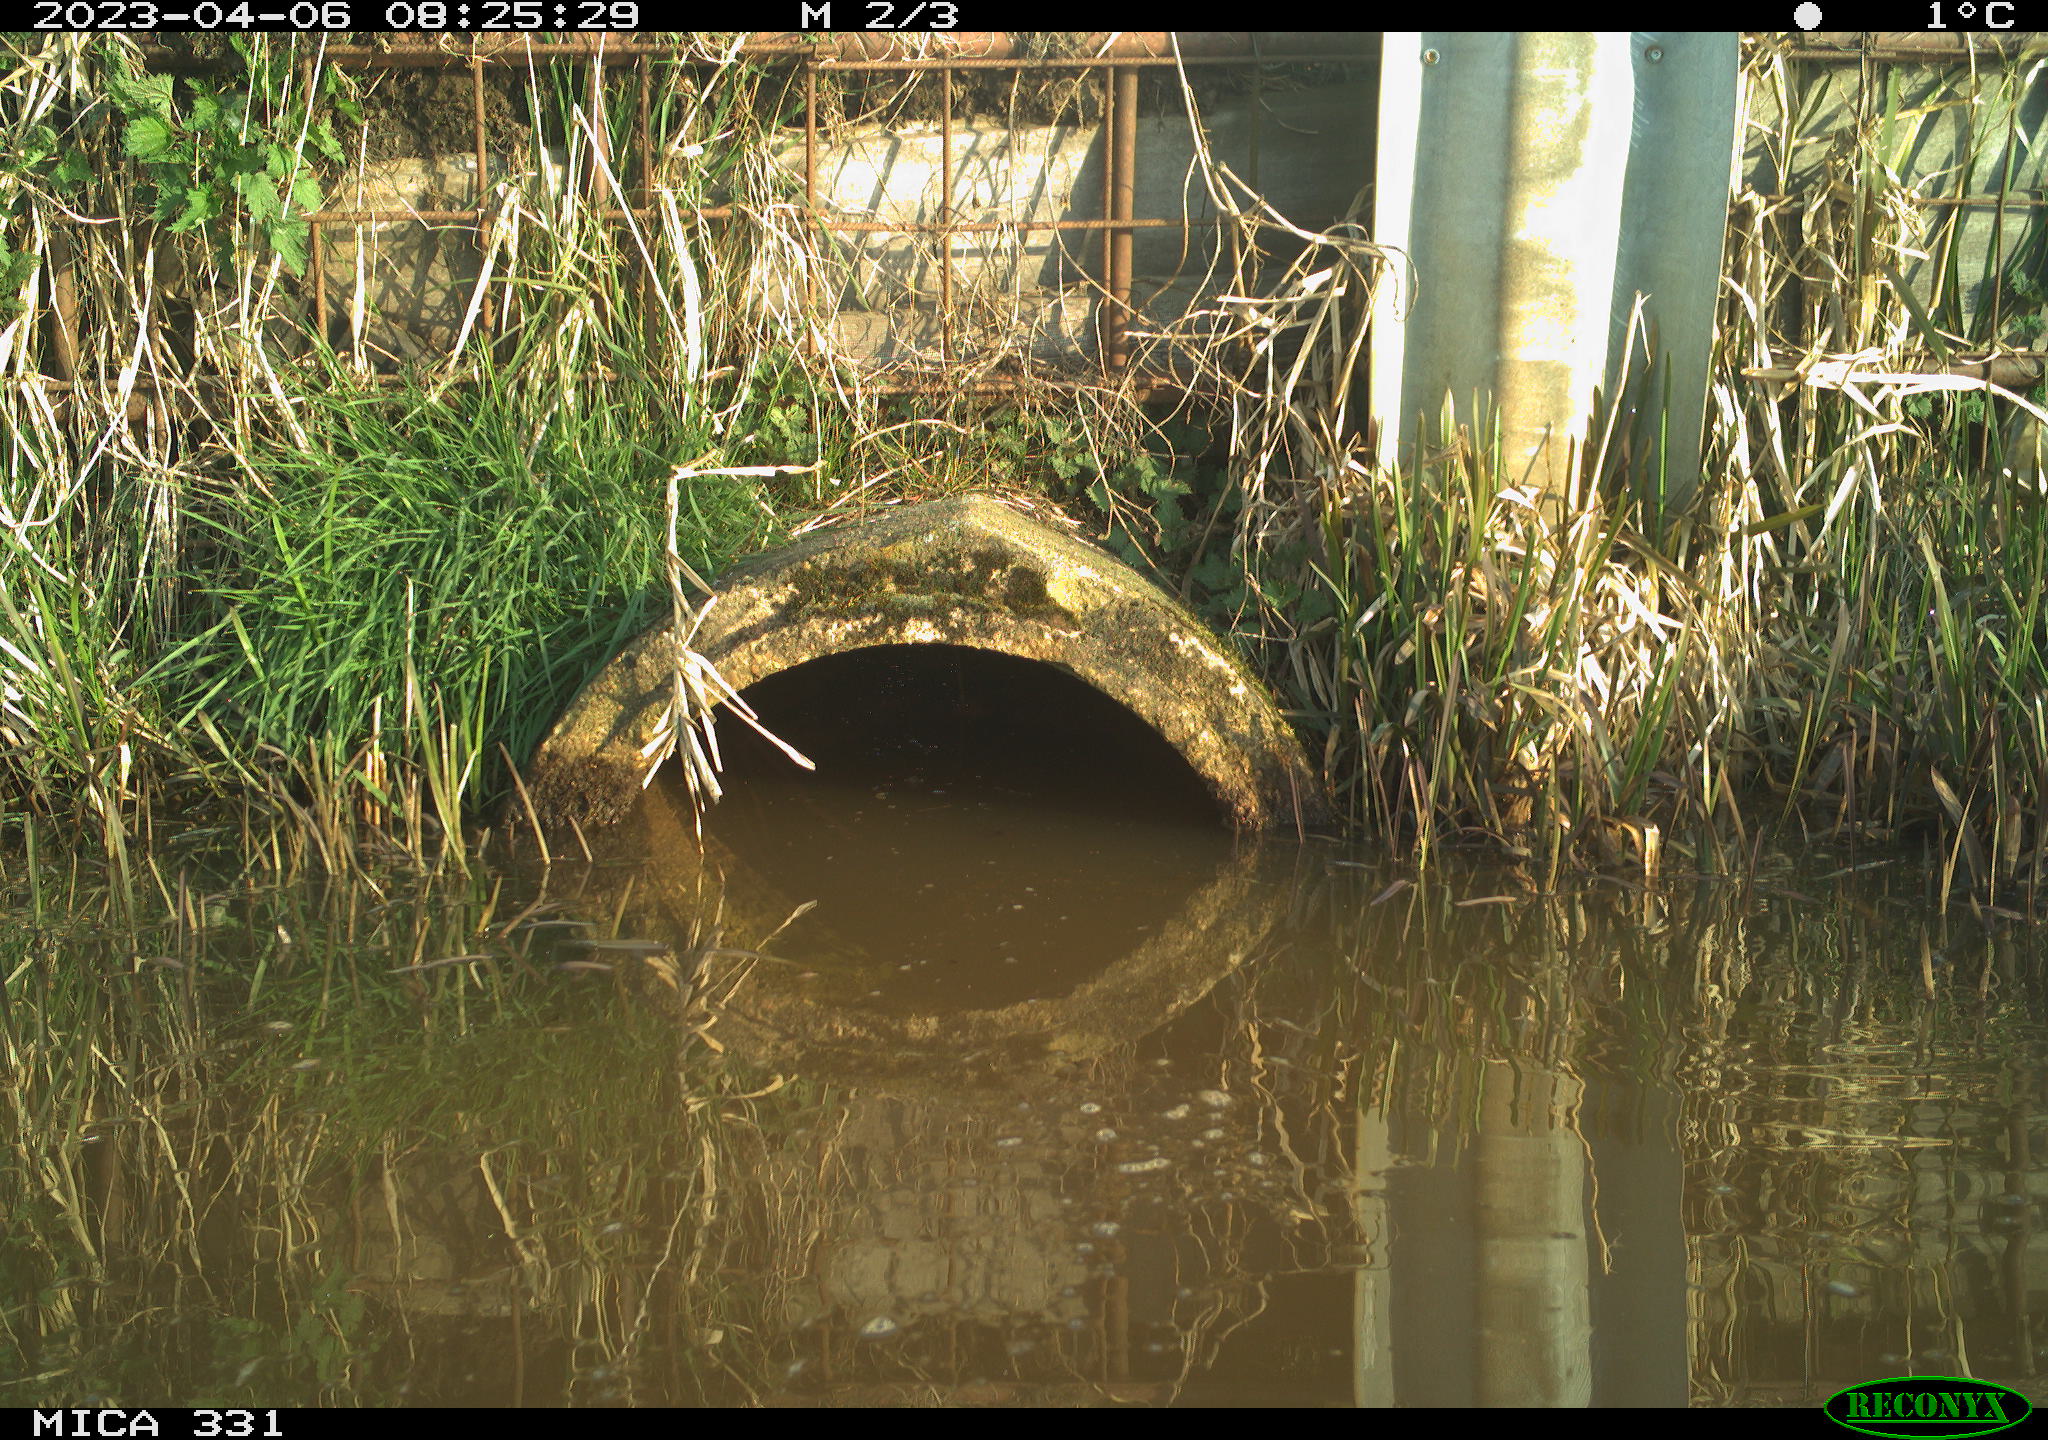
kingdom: Animalia
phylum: Chordata
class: Aves
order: Gruiformes
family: Rallidae
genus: Fulica
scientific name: Fulica atra
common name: Eurasian coot
